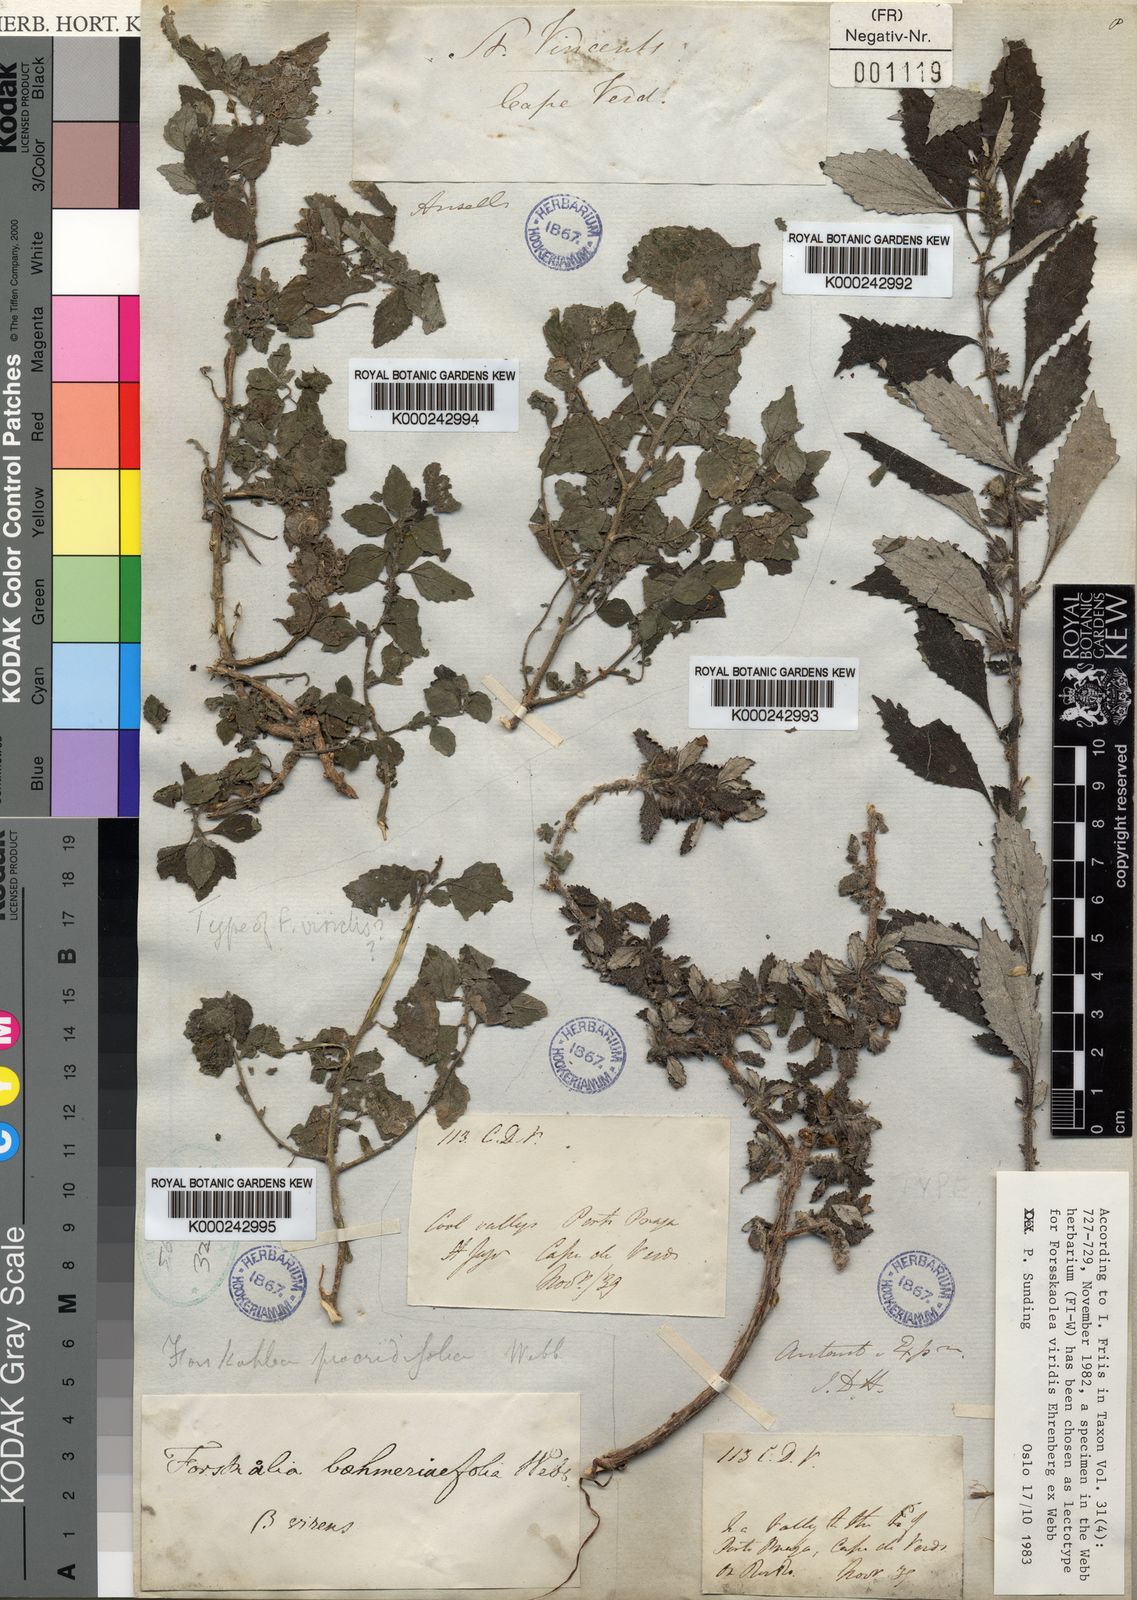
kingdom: Plantae
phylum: Tracheophyta
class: Magnoliopsida
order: Rosales
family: Urticaceae
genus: Forsskaolea
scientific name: Forsskaolea
